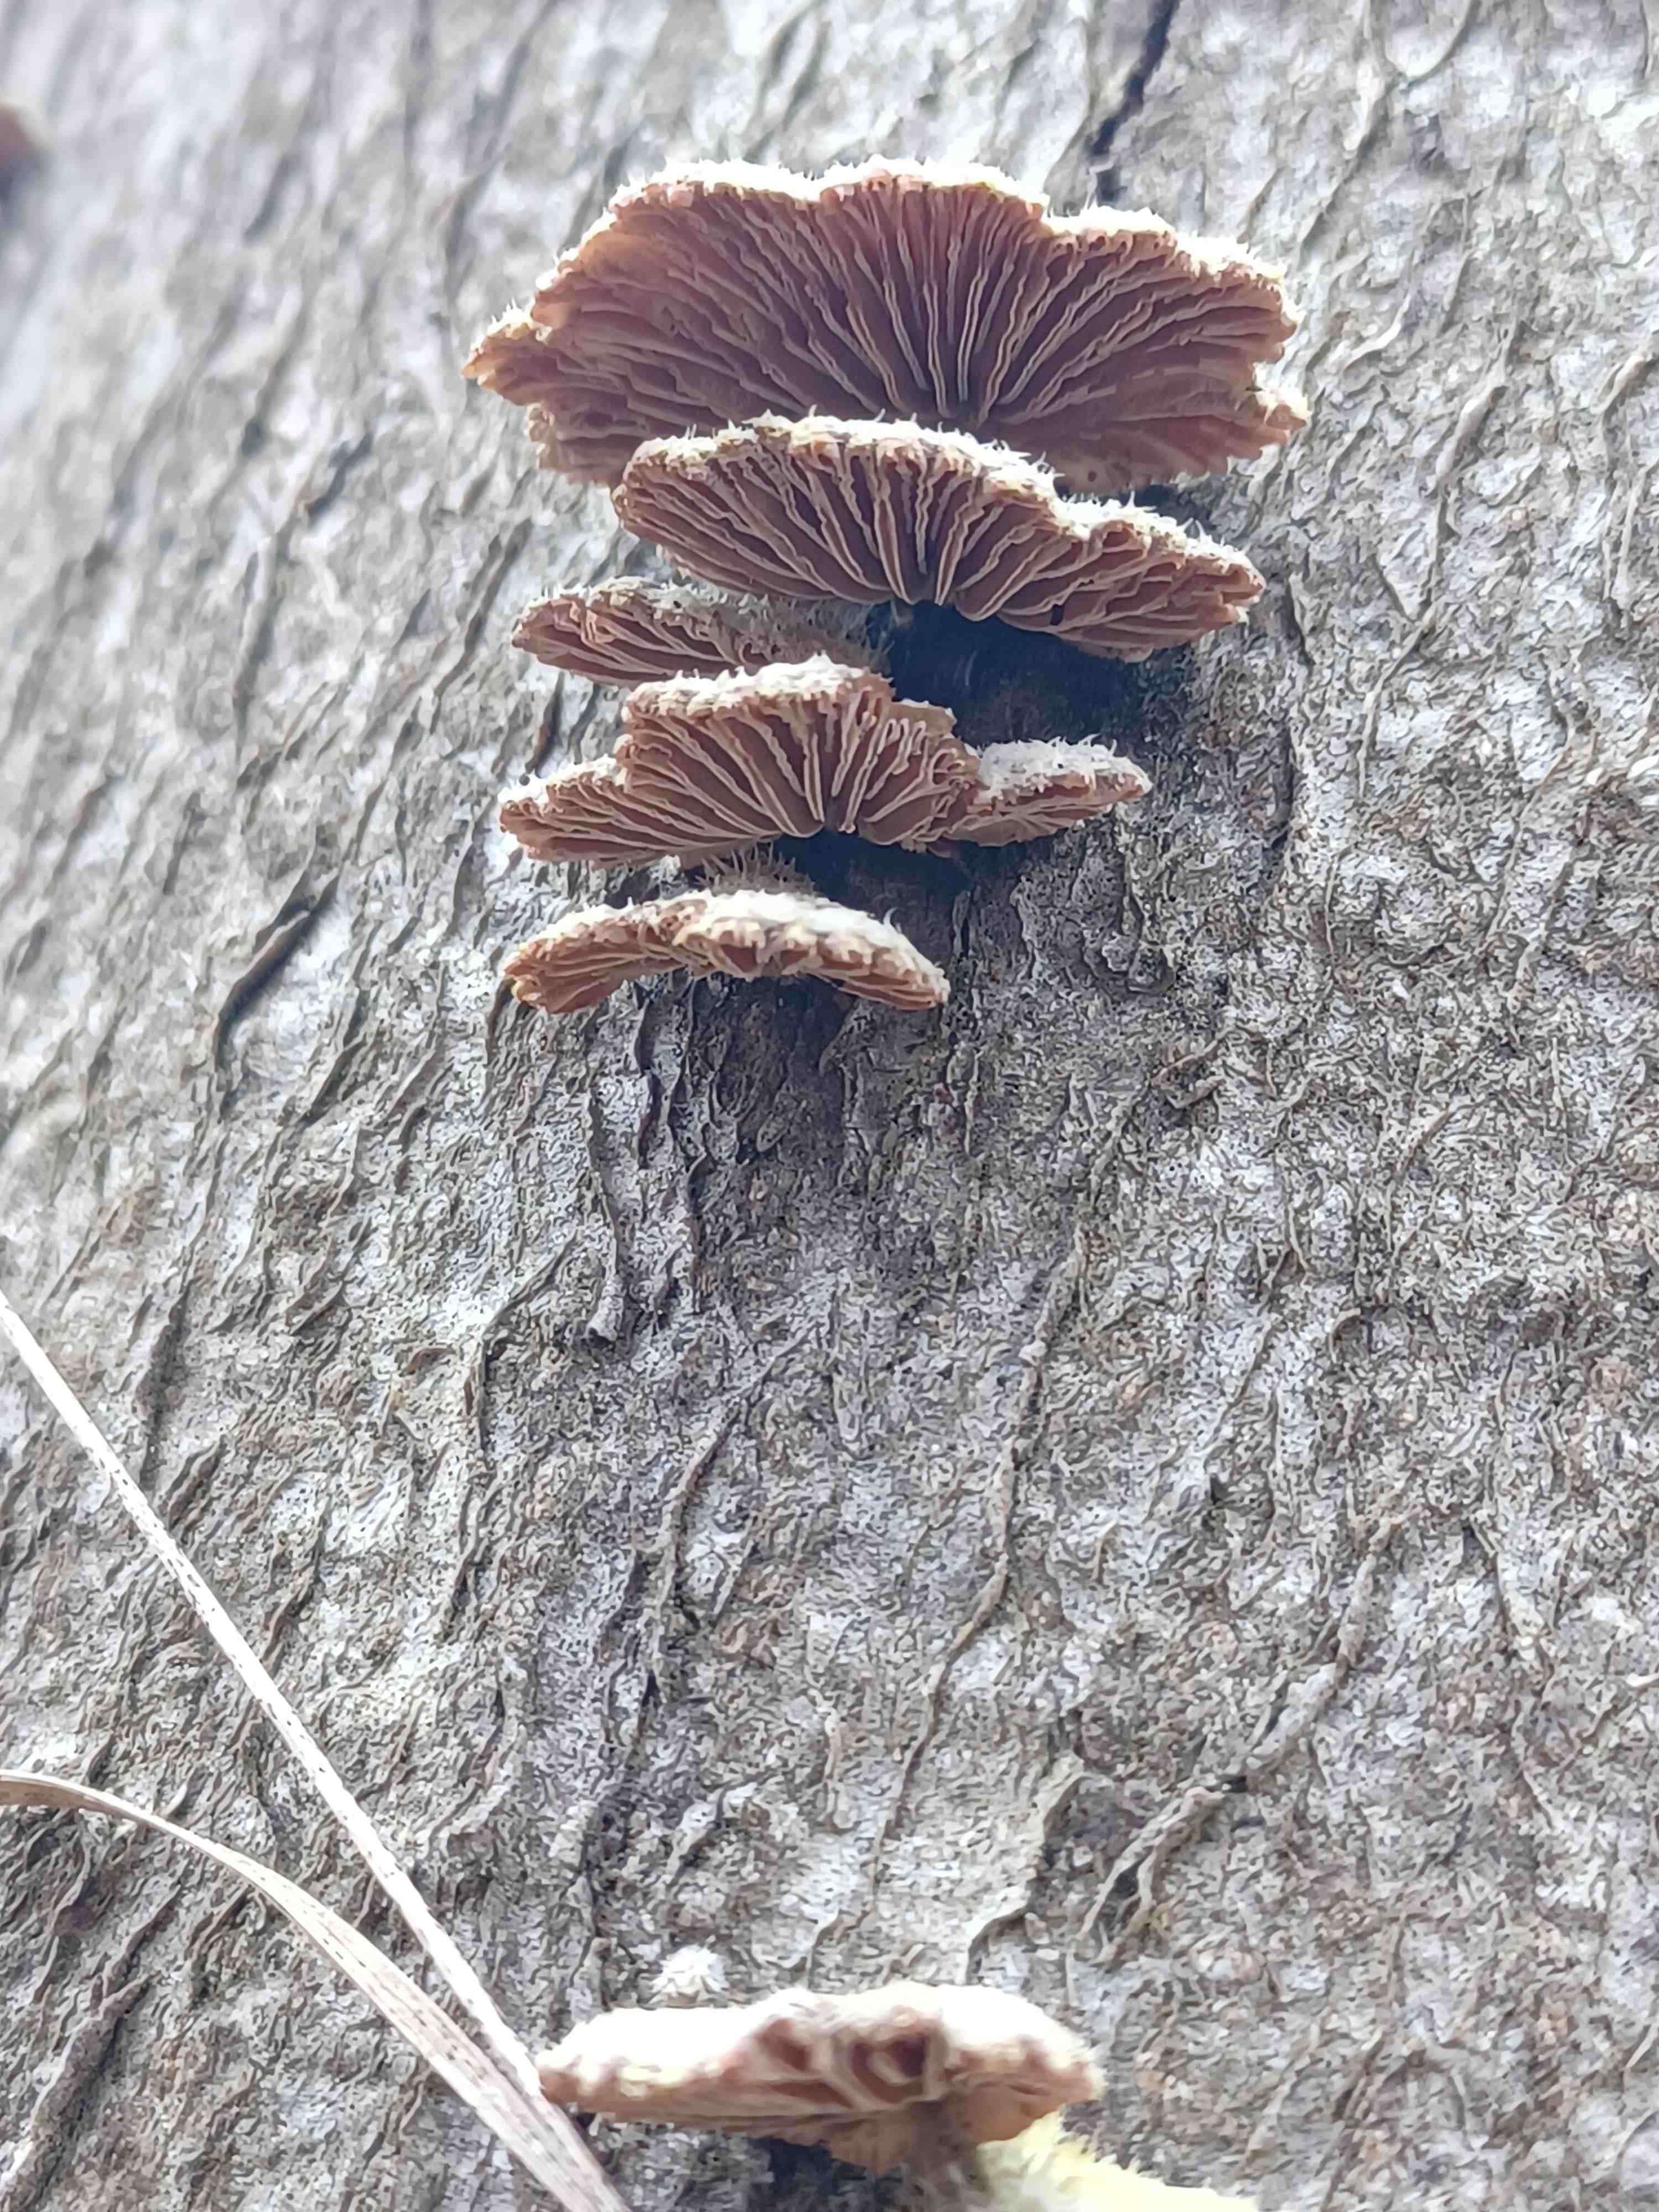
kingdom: Fungi
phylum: Basidiomycota
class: Agaricomycetes
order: Agaricales
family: Schizophyllaceae
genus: Schizophyllum
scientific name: Schizophyllum commune
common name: kløvblad
